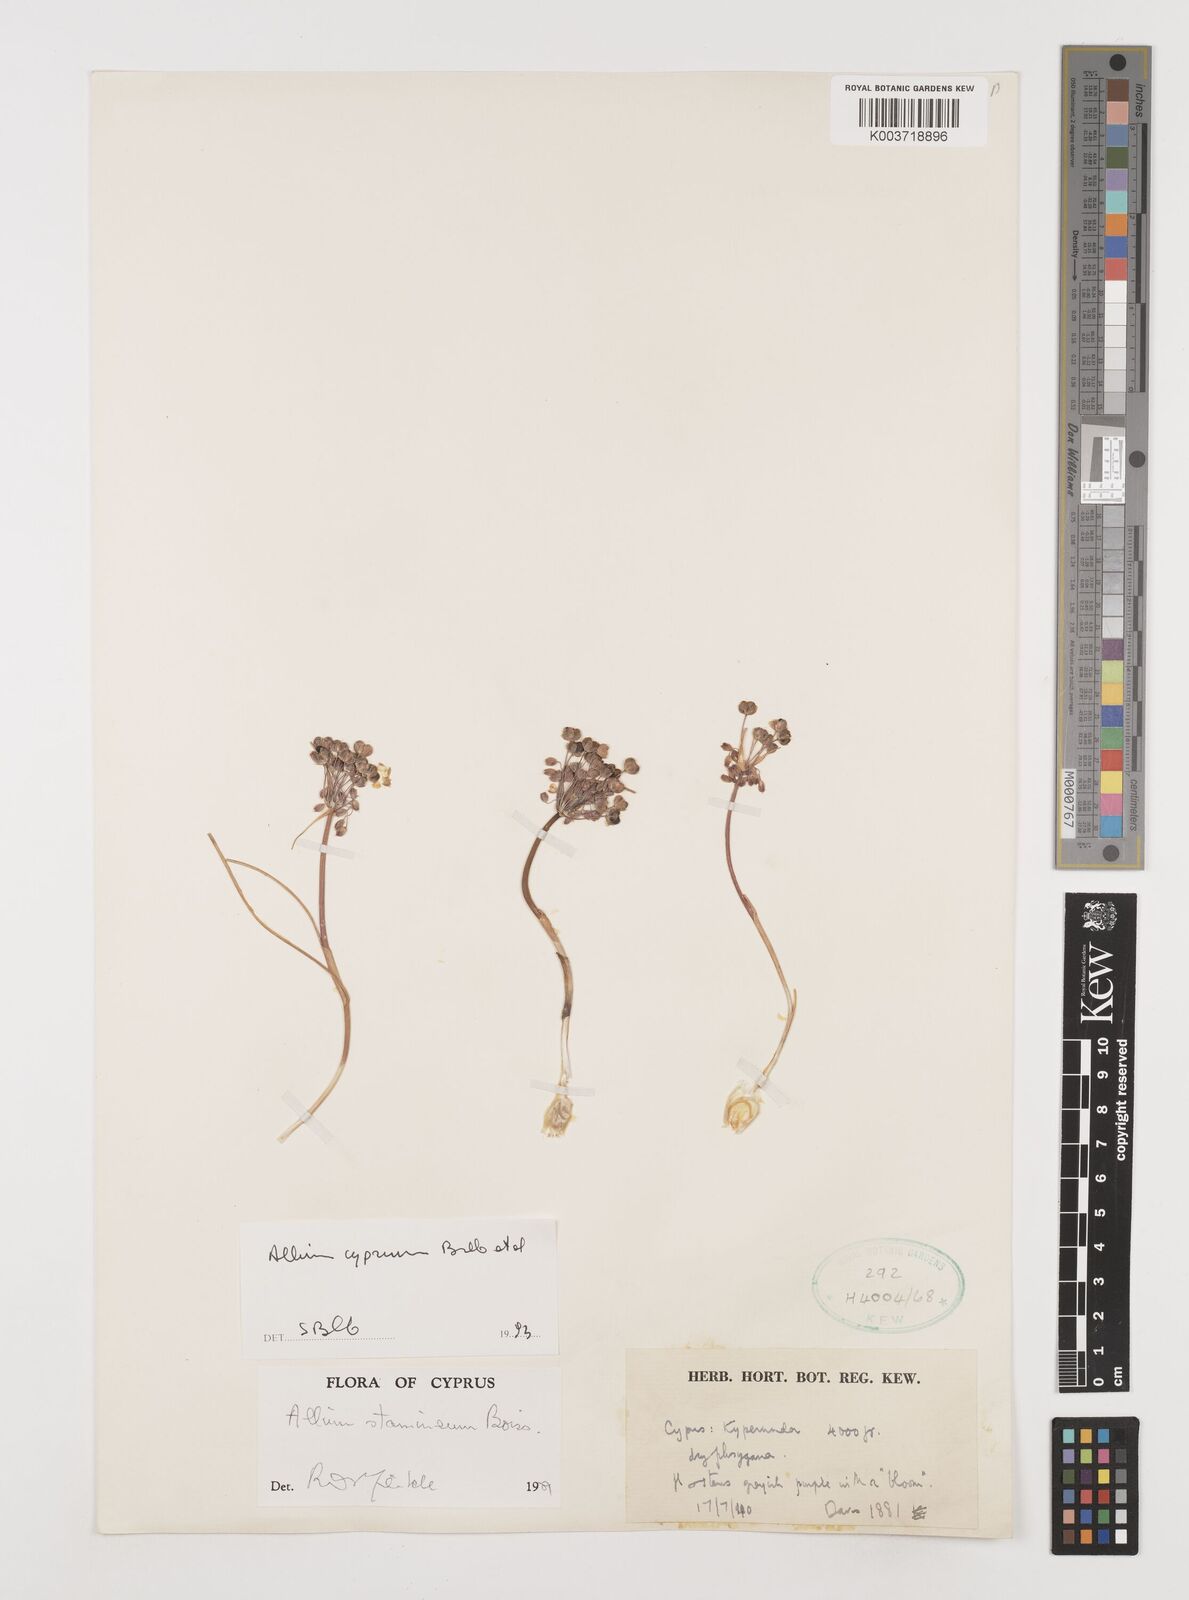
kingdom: Plantae
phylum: Tracheophyta
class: Liliopsida
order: Asparagales
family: Amaryllidaceae
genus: Allium
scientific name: Allium stamineum
